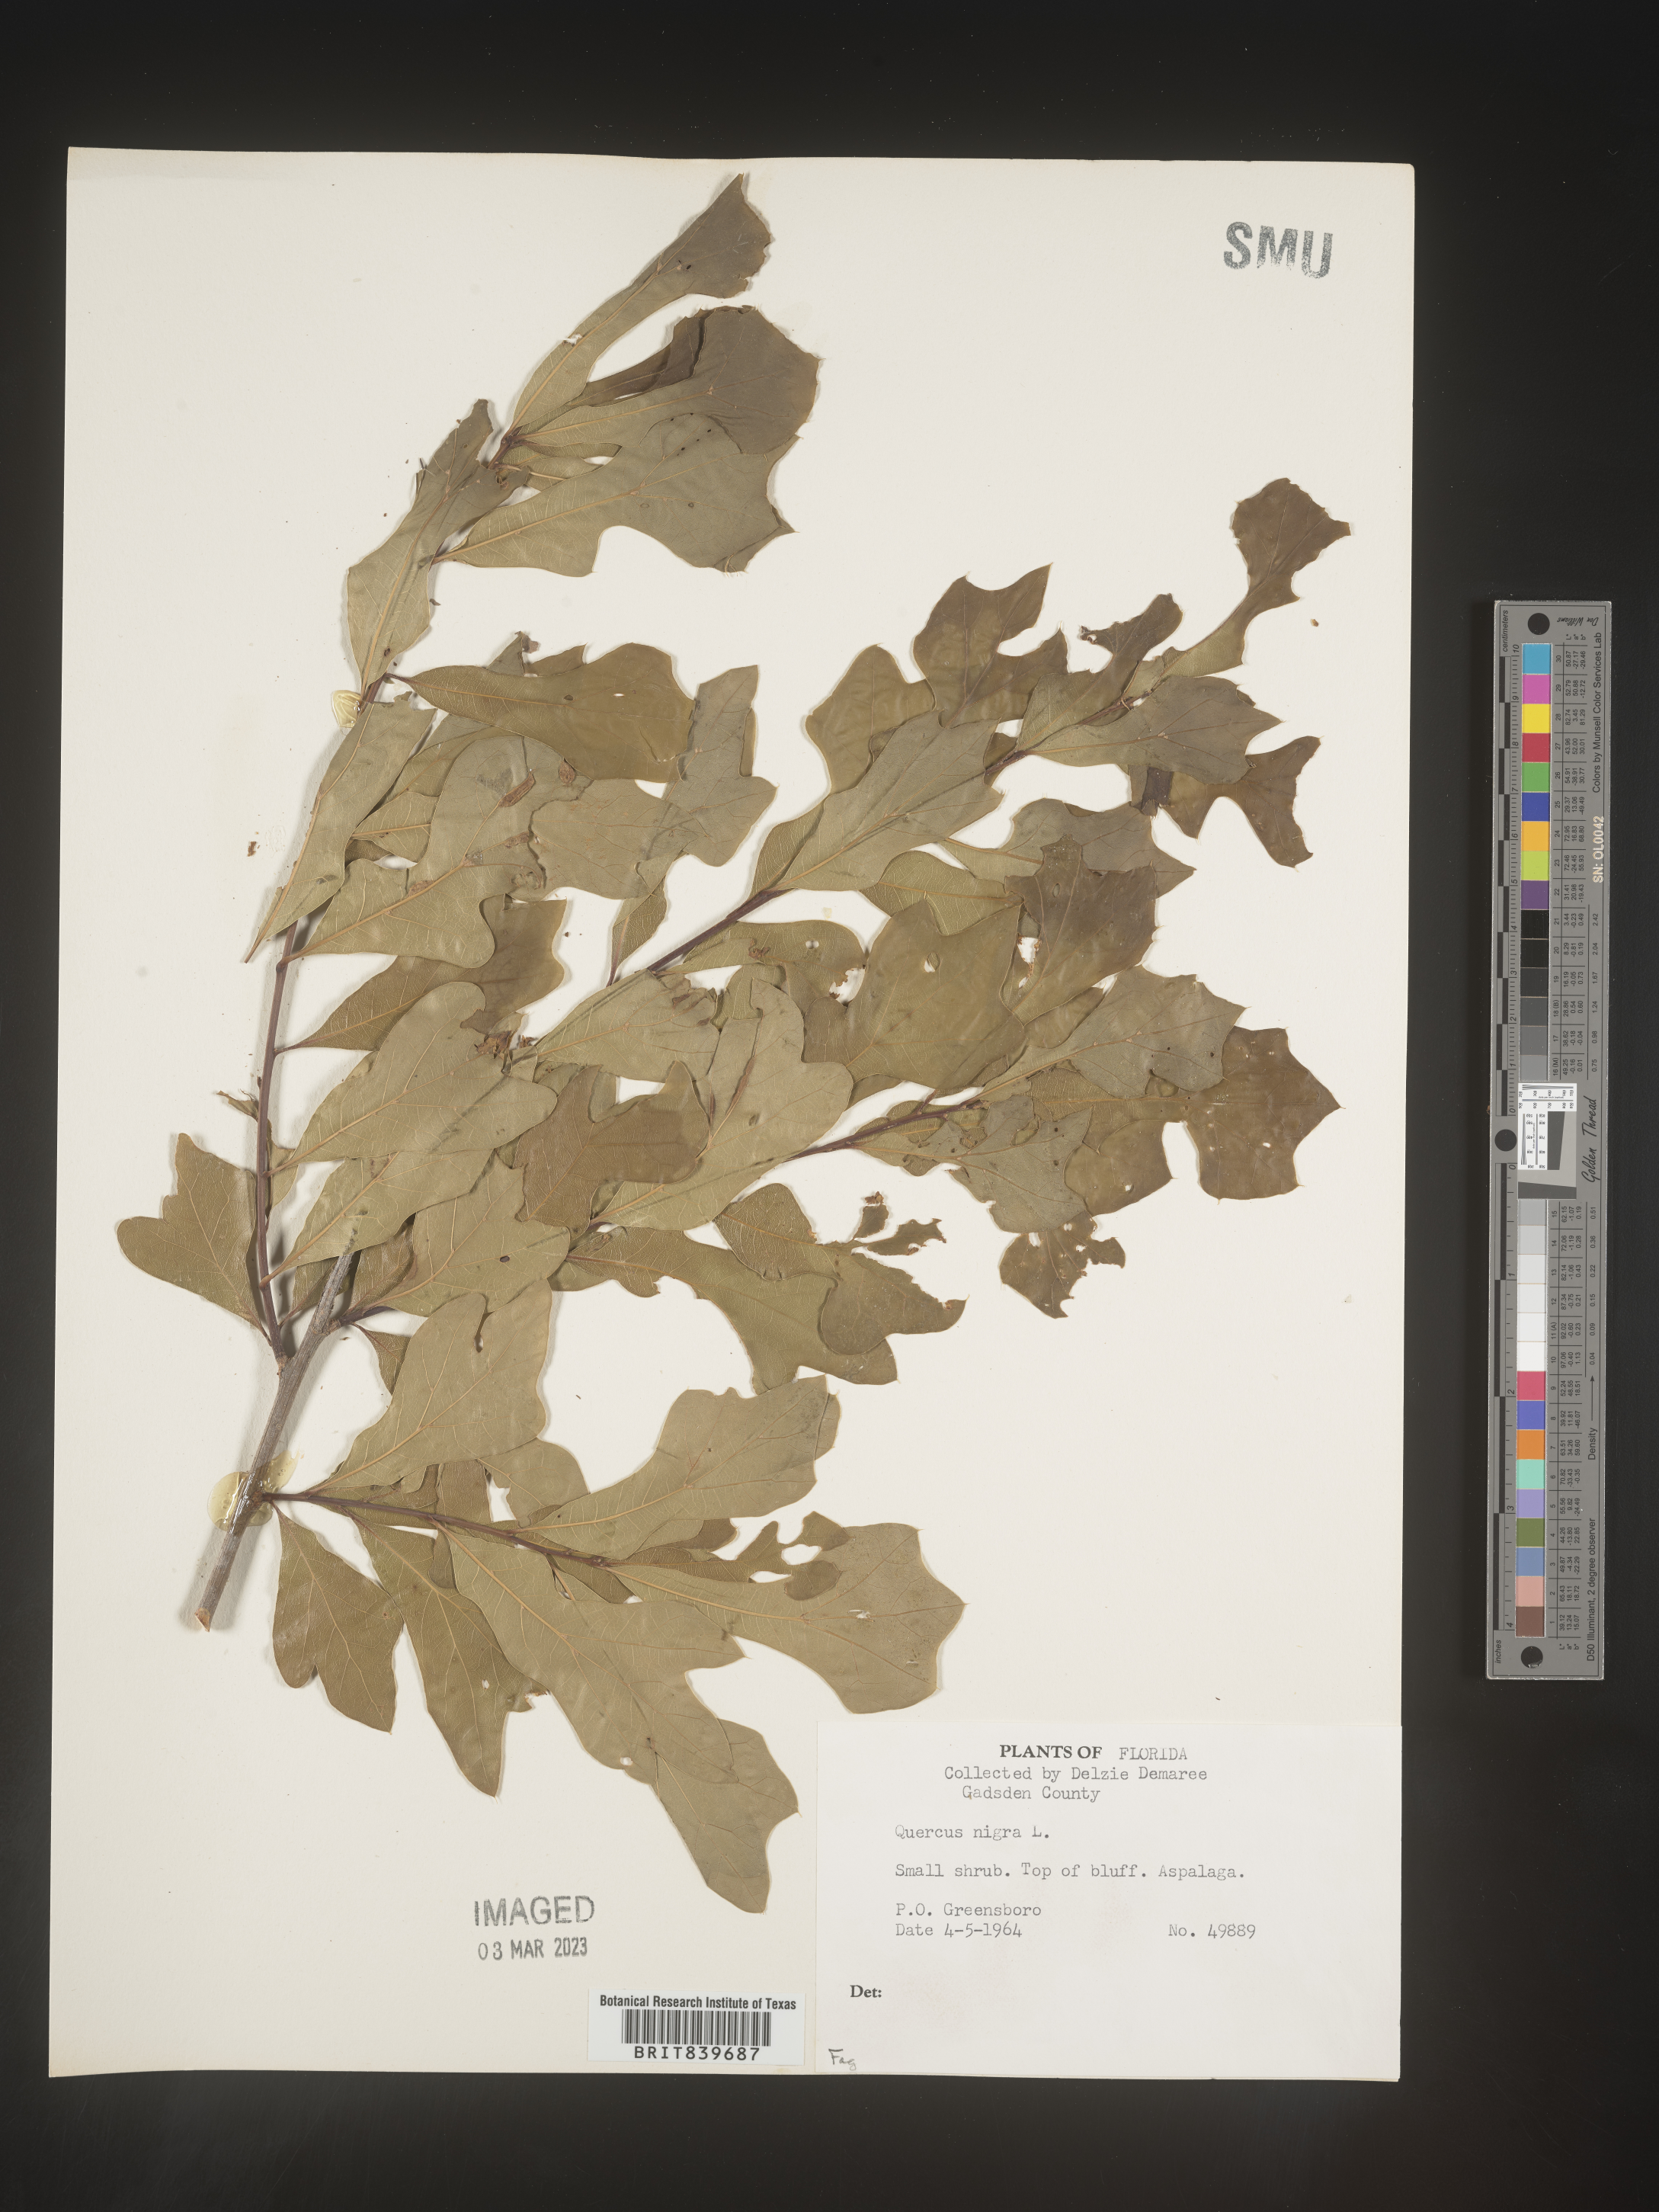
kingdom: Plantae
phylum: Tracheophyta
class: Magnoliopsida
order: Fagales
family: Fagaceae
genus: Quercus
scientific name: Quercus nigra
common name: Water oak
